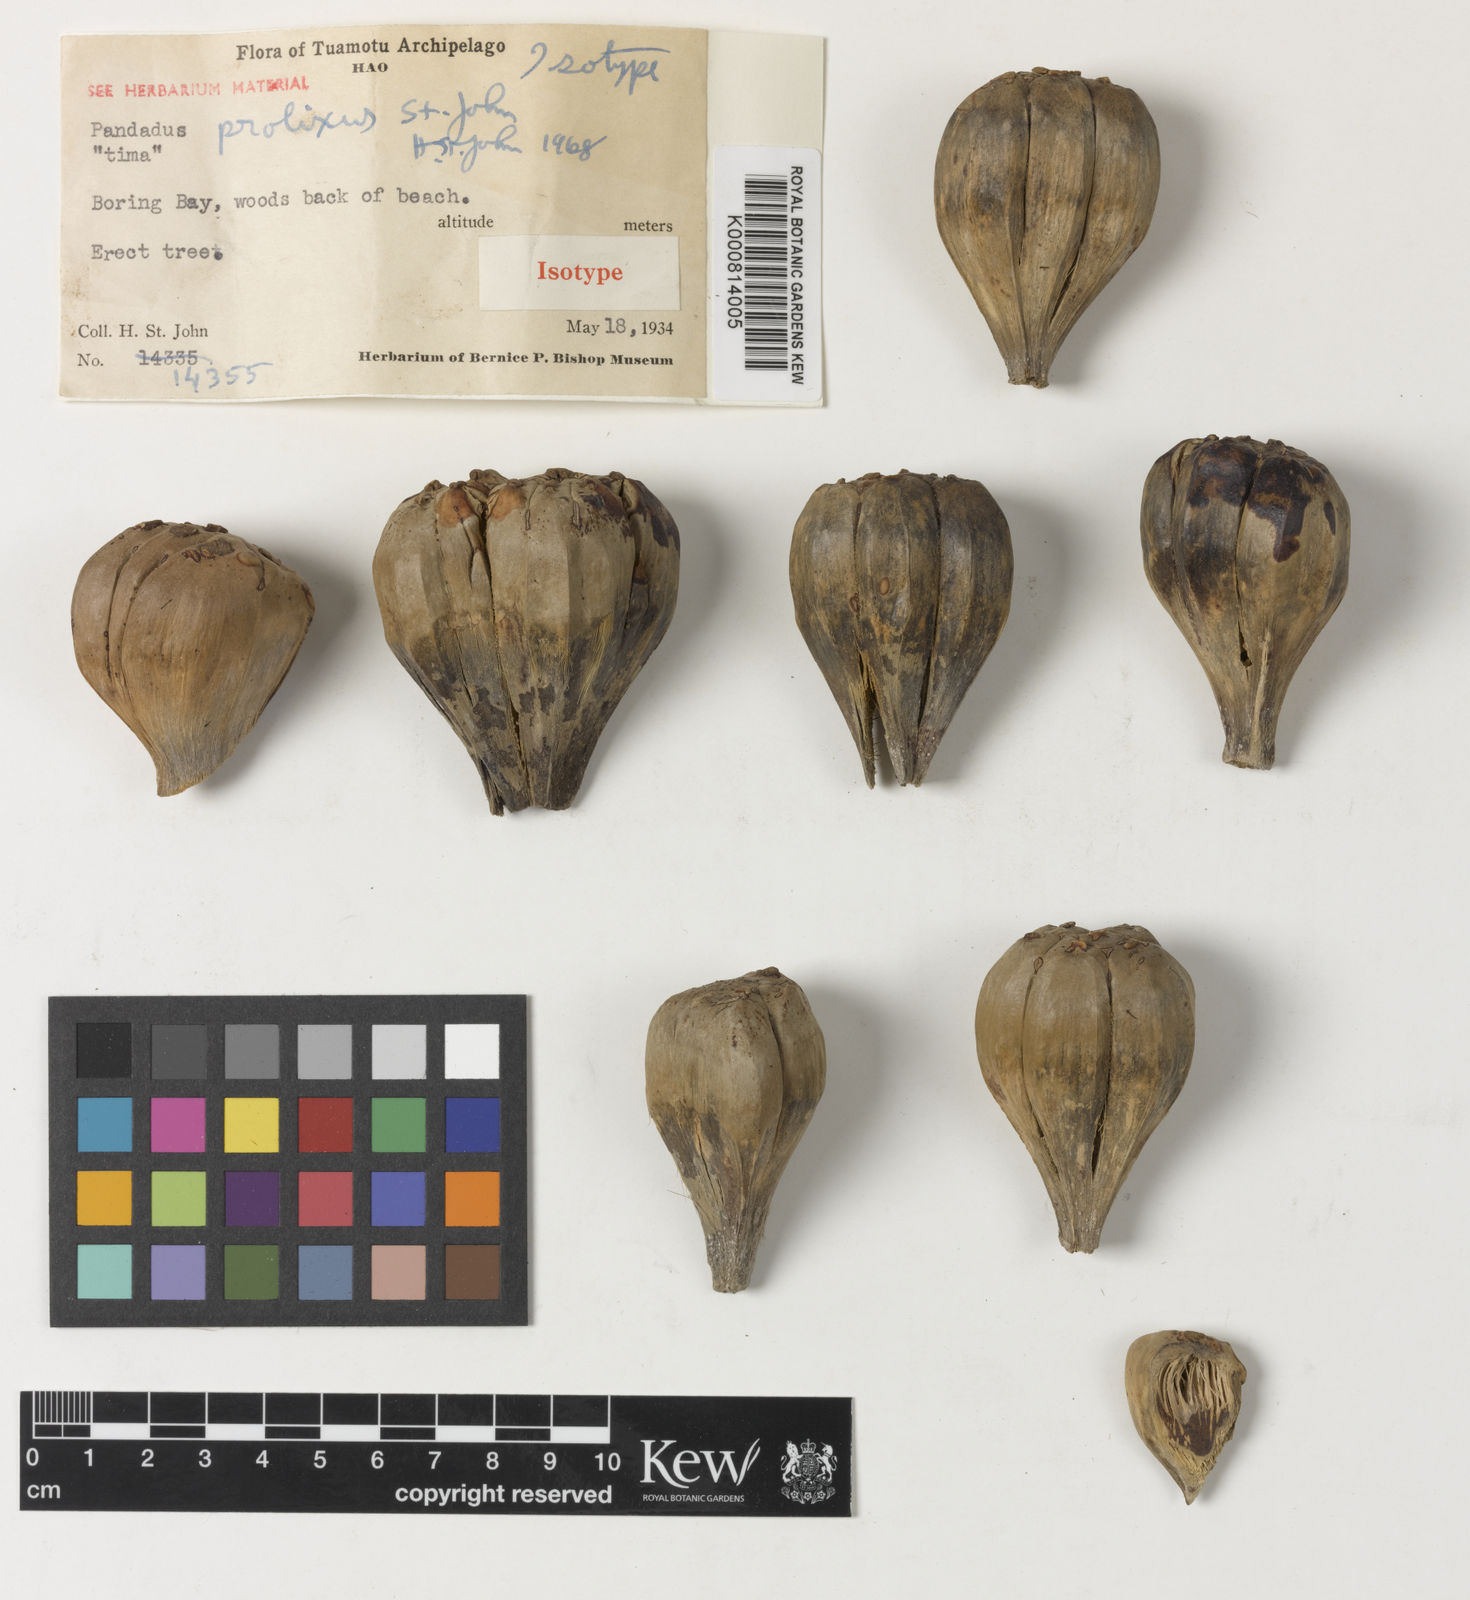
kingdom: Plantae
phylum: Tracheophyta
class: Liliopsida
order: Pandanales
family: Pandanaceae
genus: Pandanus
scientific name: Pandanus tectorius
